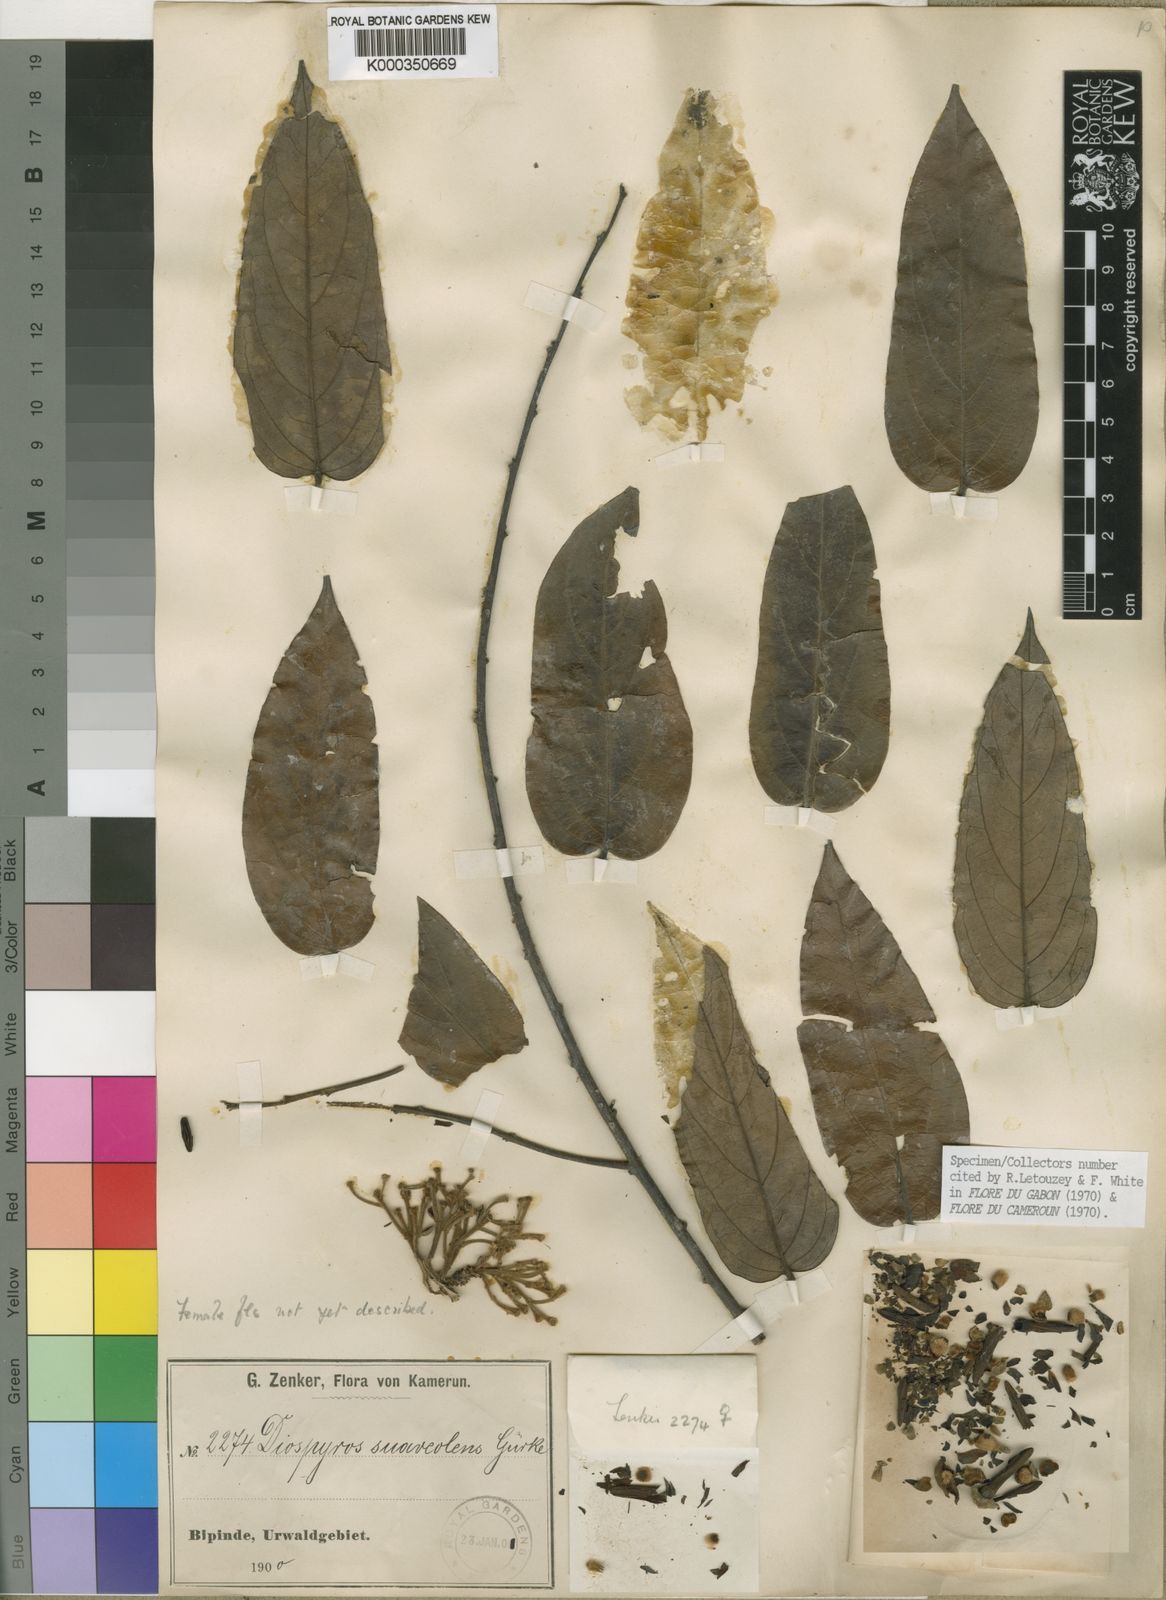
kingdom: Plantae
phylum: Tracheophyta
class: Magnoliopsida
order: Ericales
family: Ebenaceae
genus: Diospyros
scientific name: Diospyros
